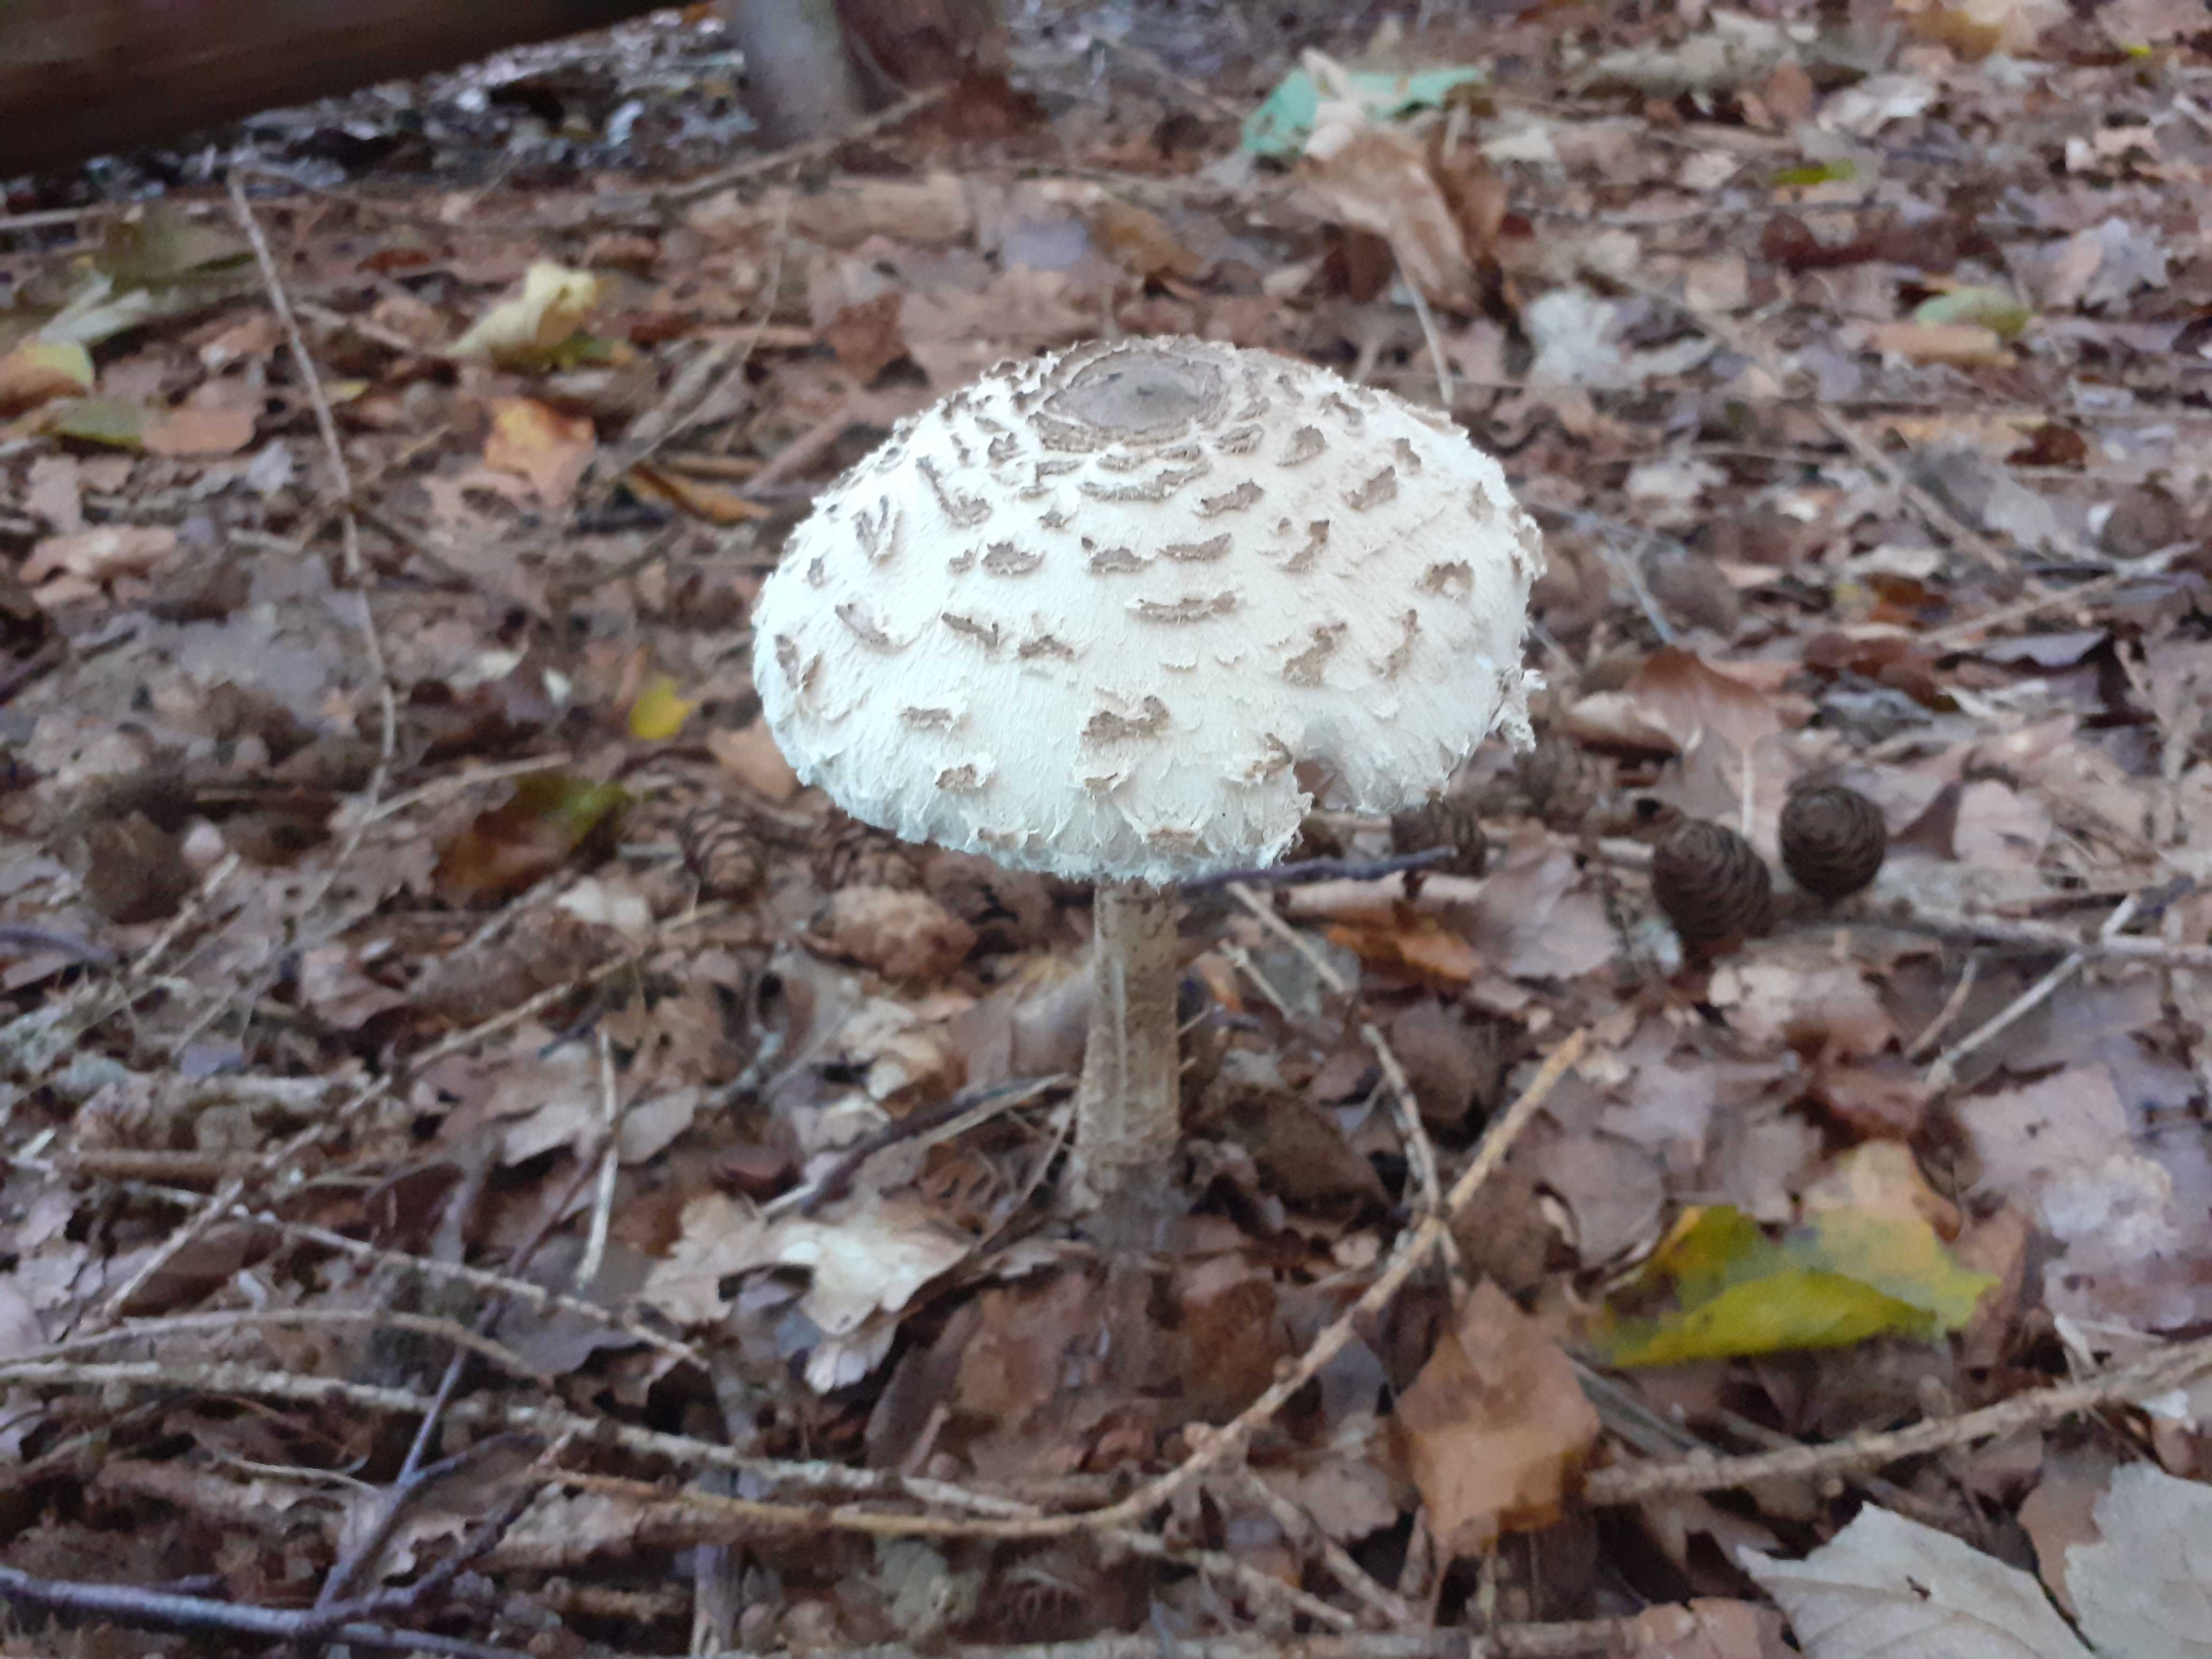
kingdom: Fungi
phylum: Basidiomycota
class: Agaricomycetes
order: Agaricales
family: Agaricaceae
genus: Macrolepiota
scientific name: Macrolepiota fuliginosa
